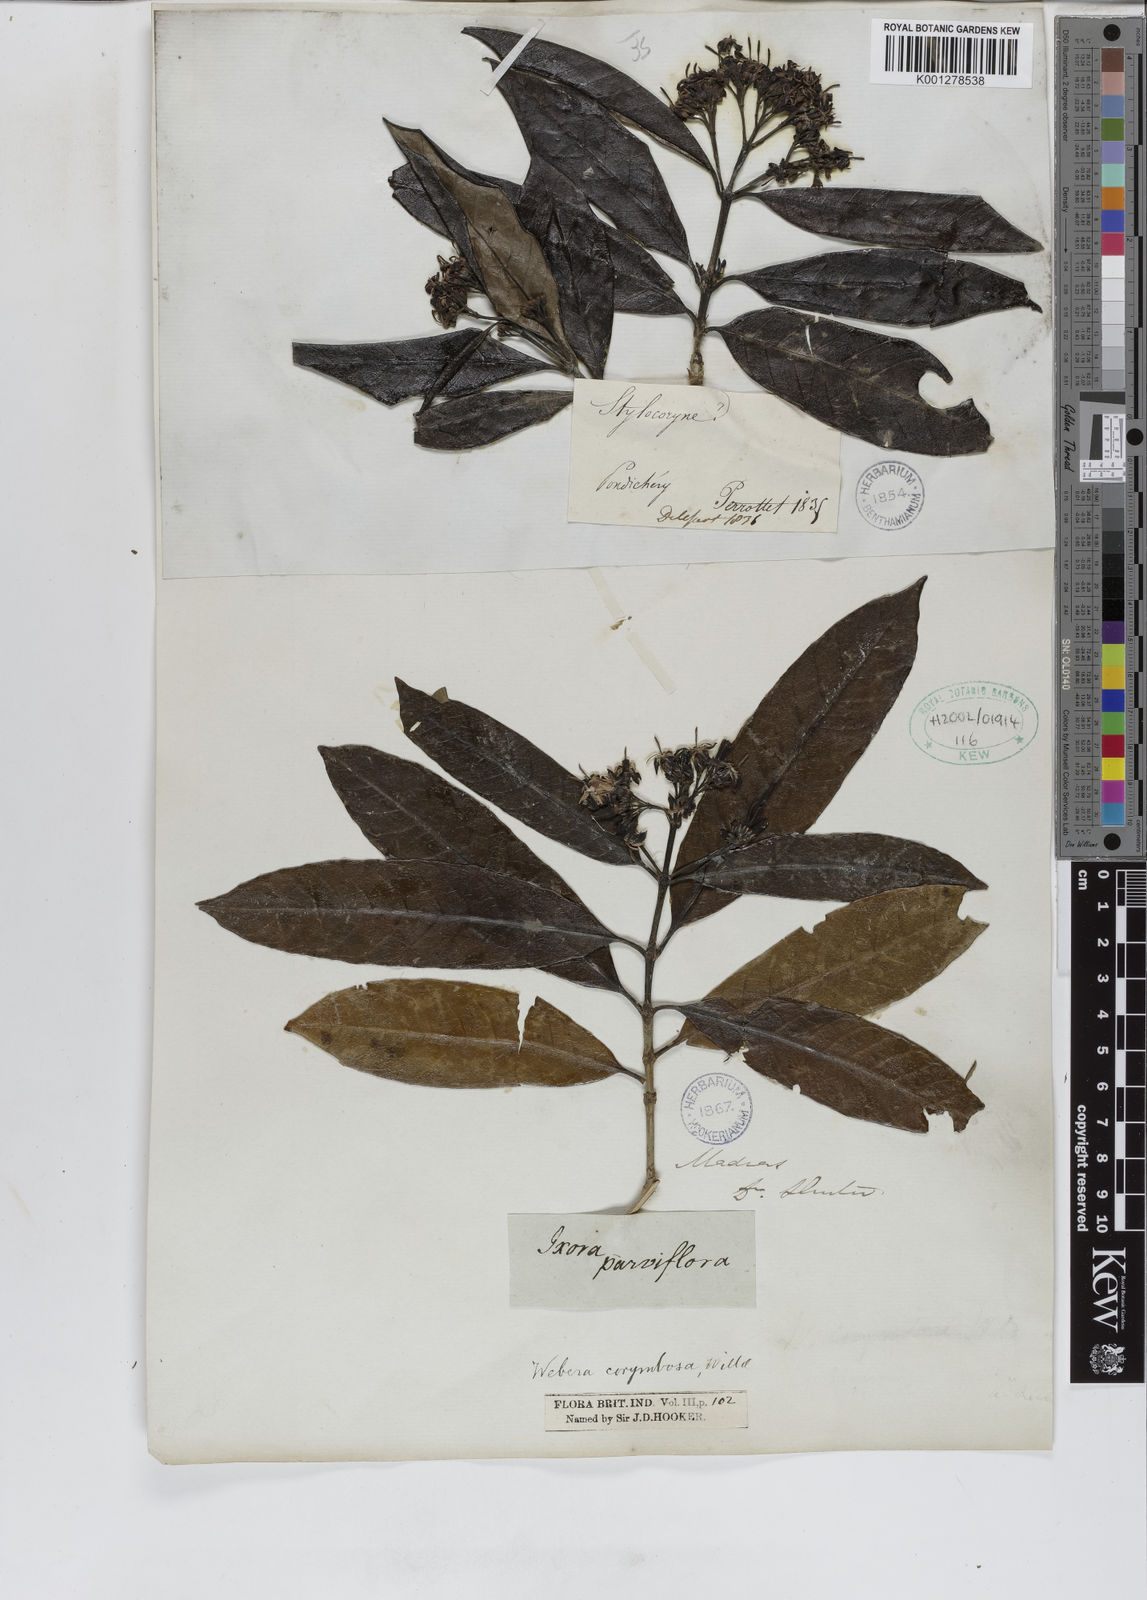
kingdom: Plantae
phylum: Tracheophyta
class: Magnoliopsida
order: Gentianales
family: Rubiaceae
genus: Tarenna
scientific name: Tarenna
